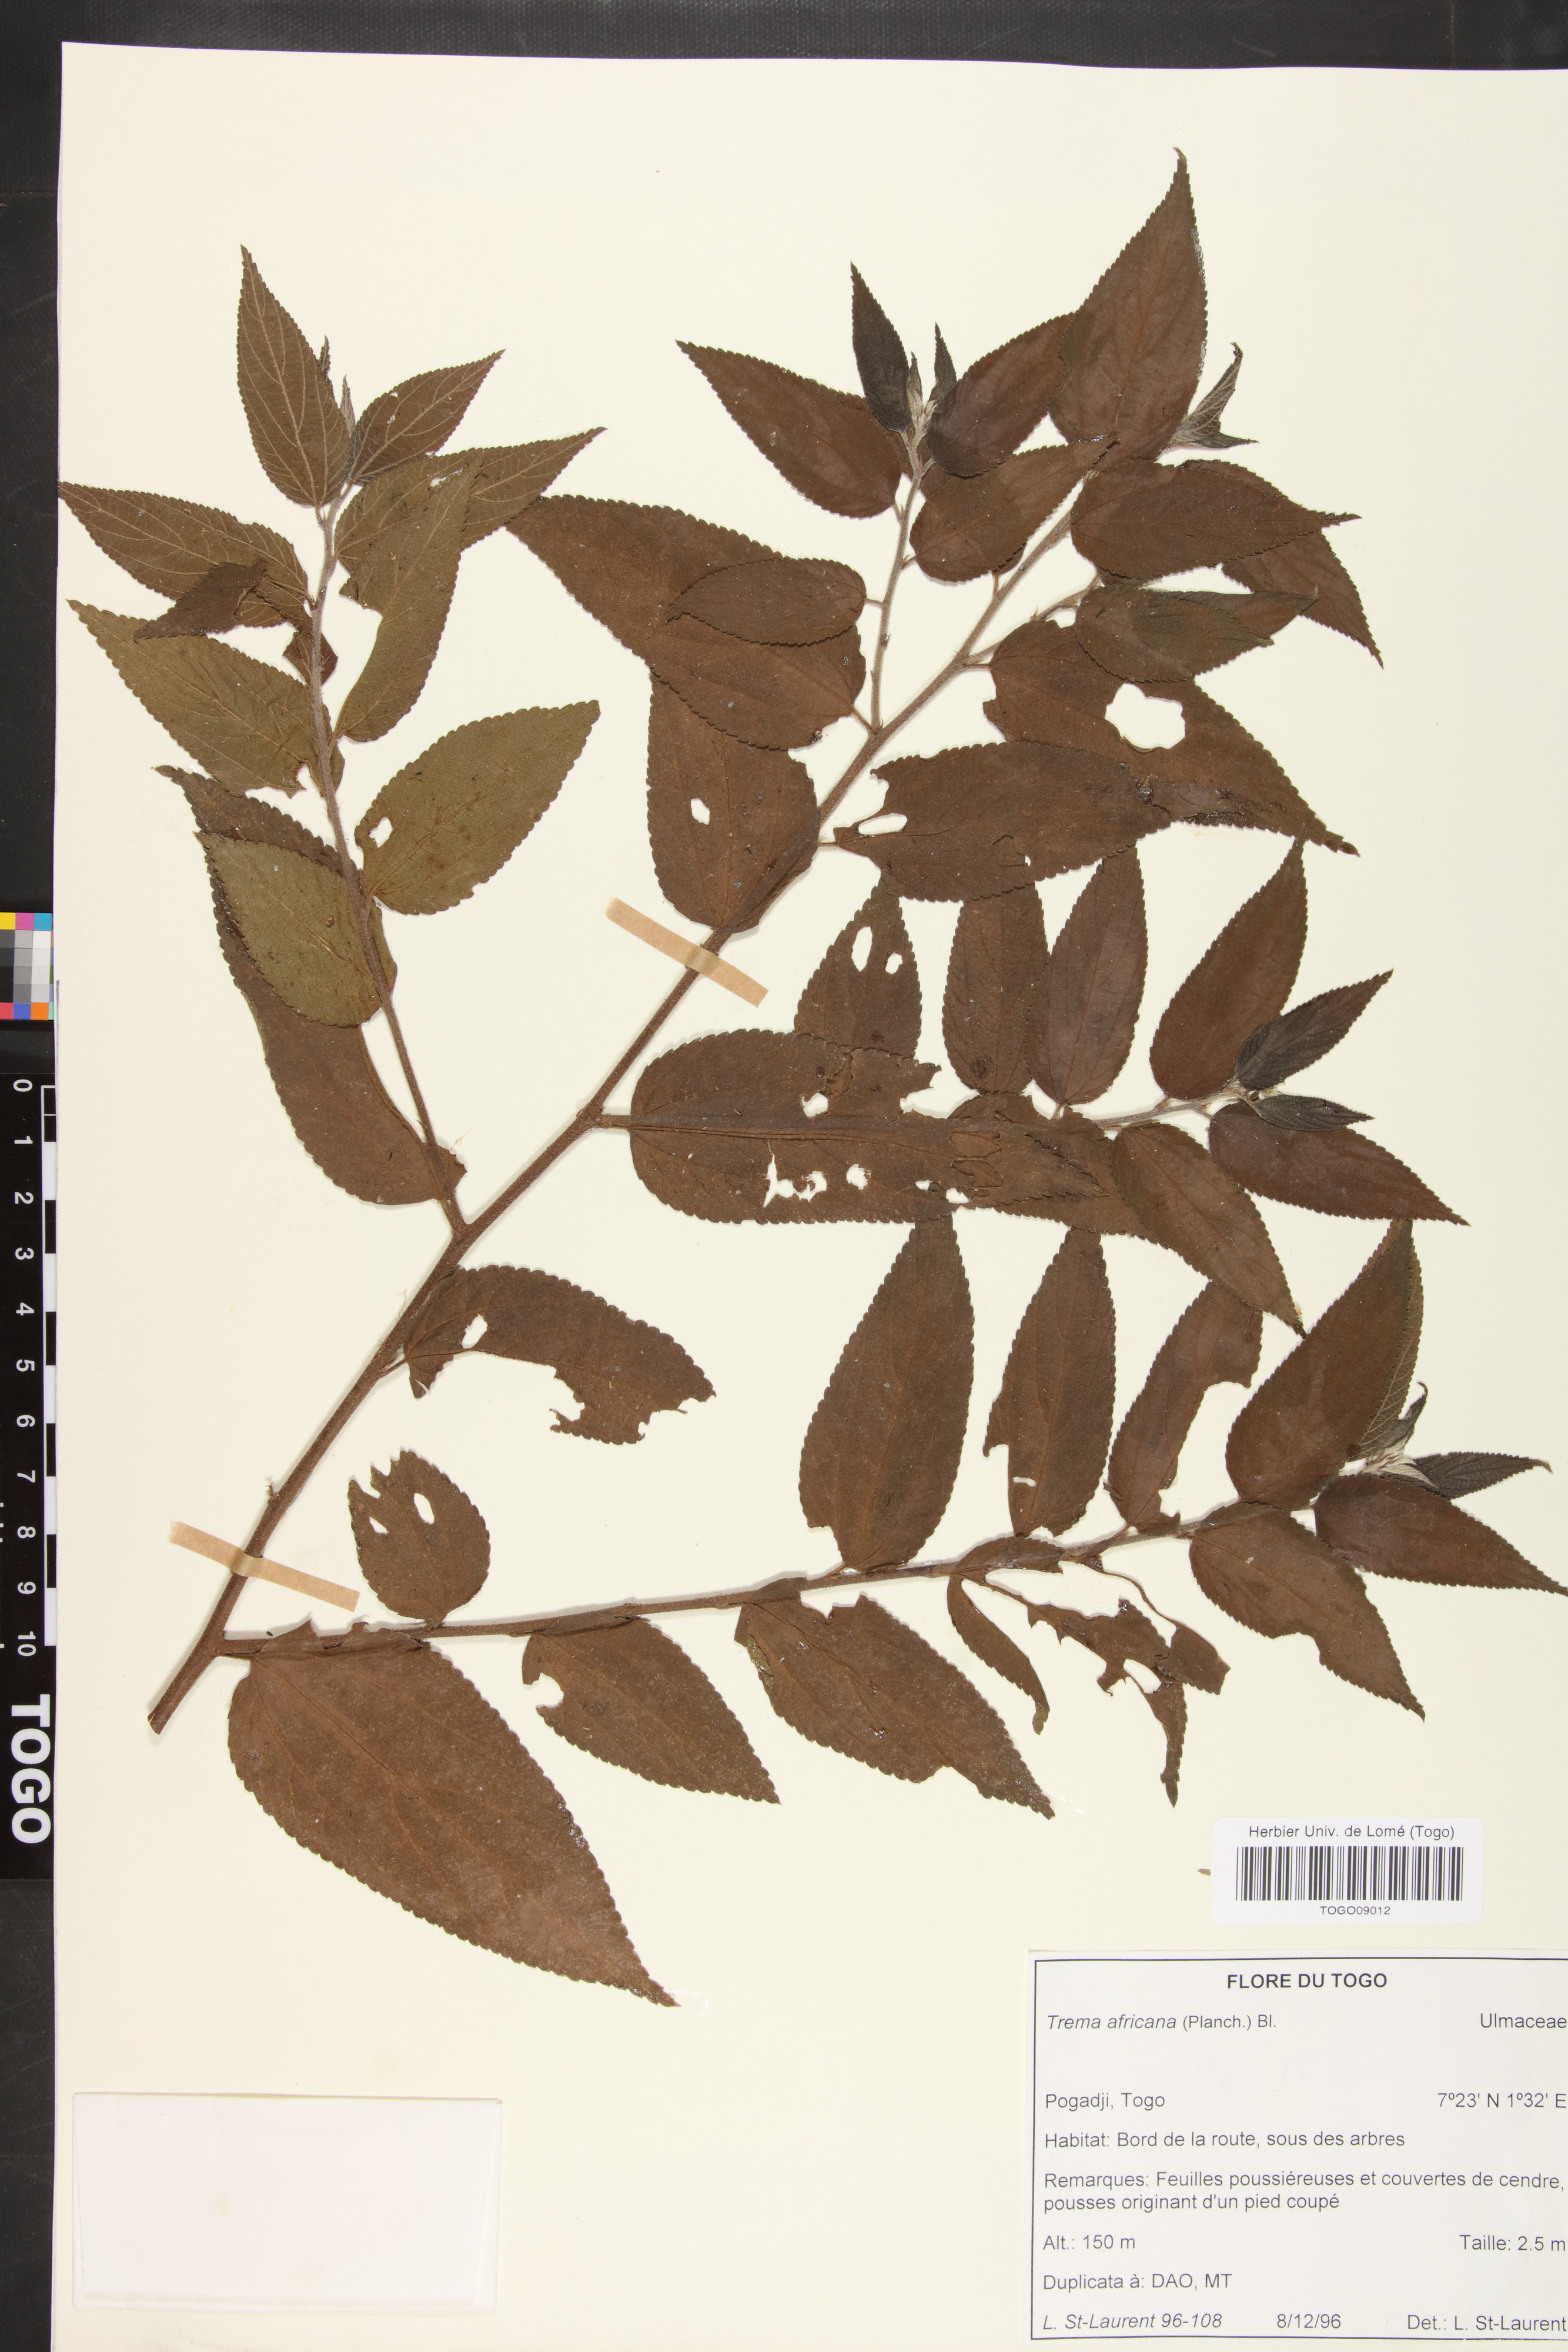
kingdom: Plantae
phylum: Tracheophyta
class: Magnoliopsida
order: Rosales
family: Cannabaceae
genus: Trema
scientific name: Trema orientale
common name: Indian charcoal tree
